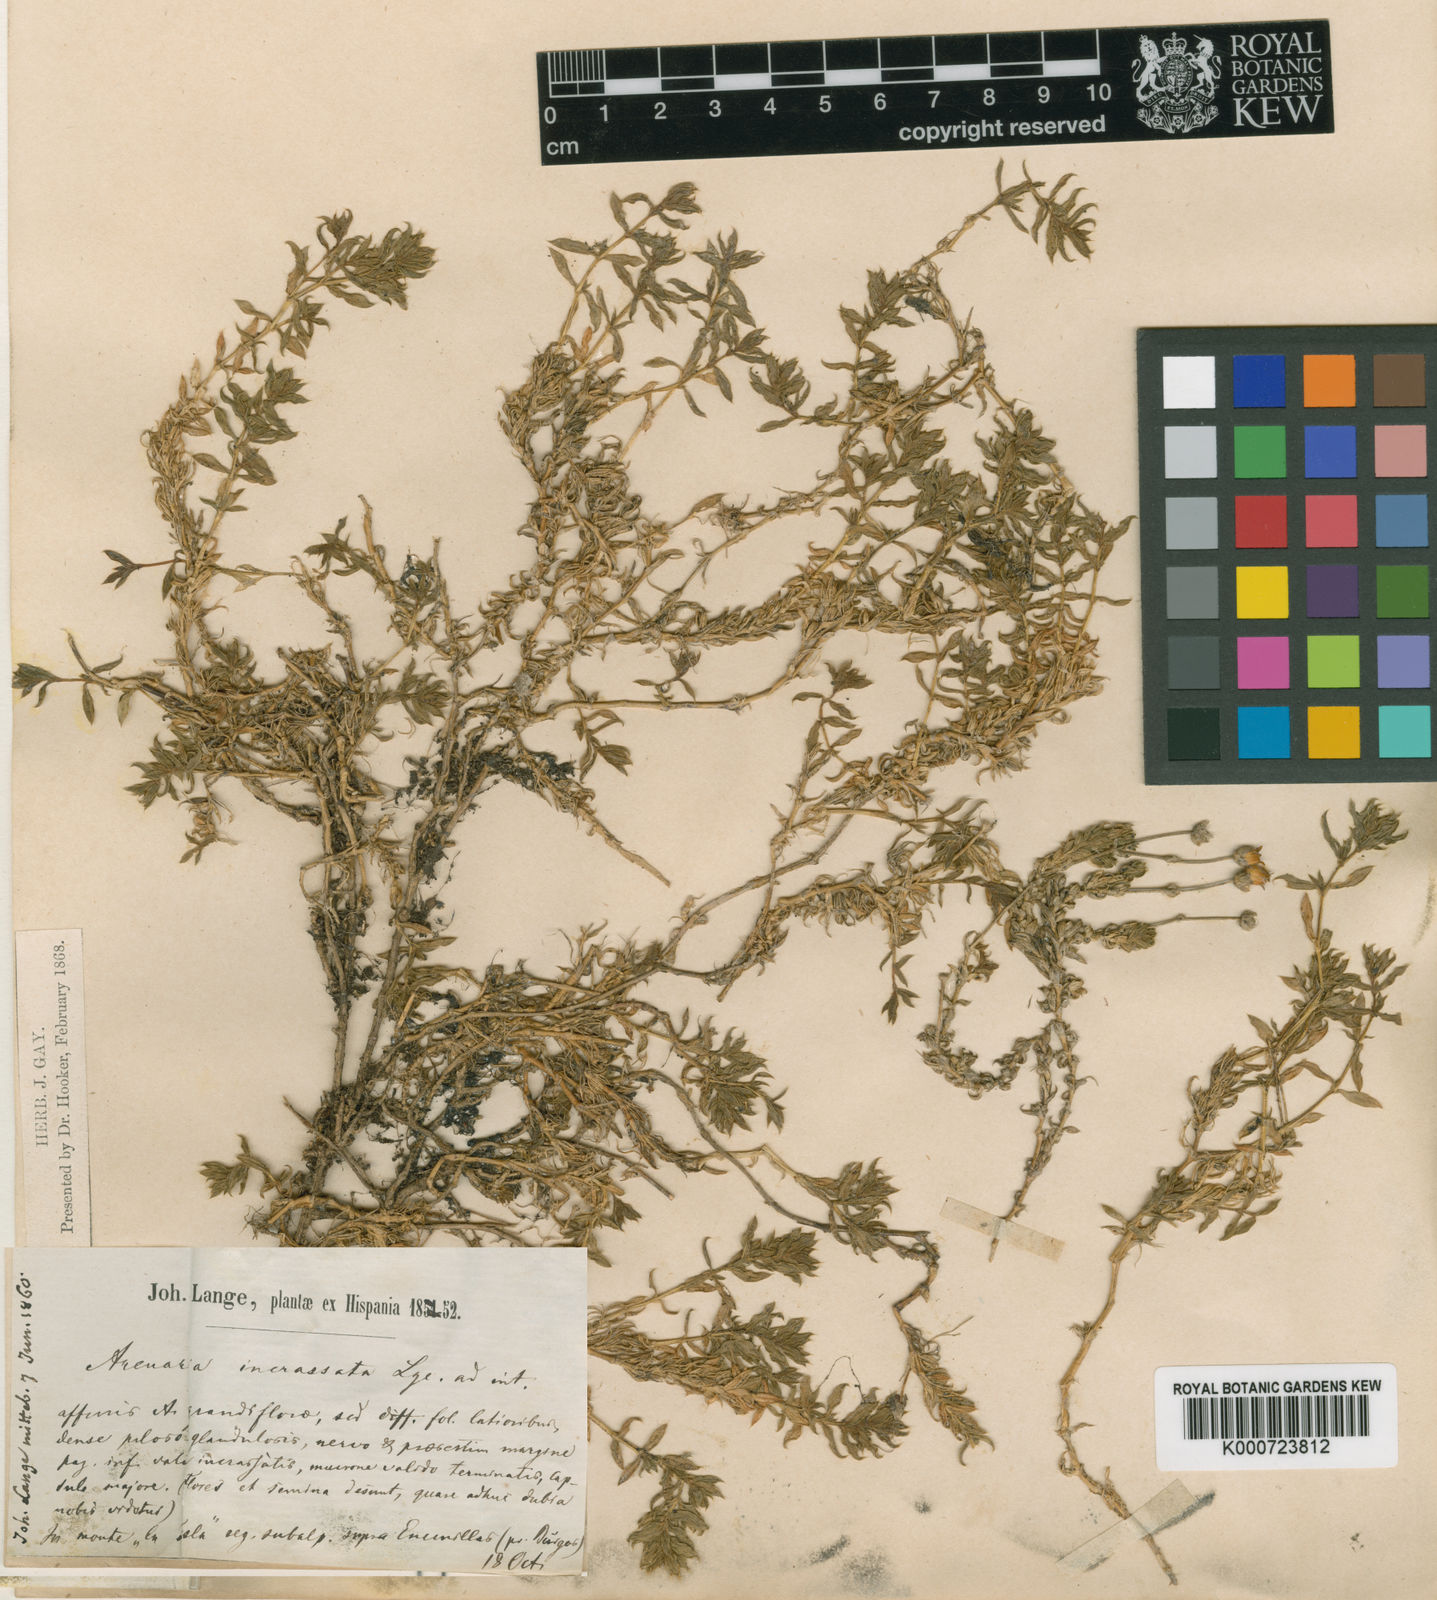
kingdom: Plantae
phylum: Tracheophyta
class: Magnoliopsida
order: Caryophyllales
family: Caryophyllaceae
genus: Arenaria
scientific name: Arenaria grandiflora
